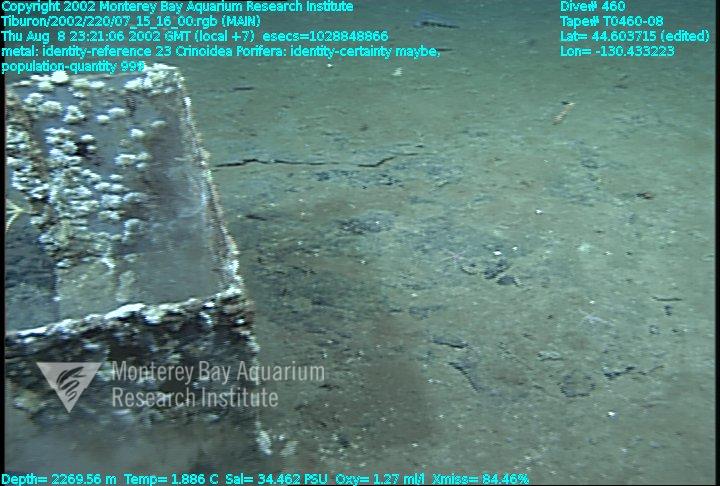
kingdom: Animalia
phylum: Porifera
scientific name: Porifera
